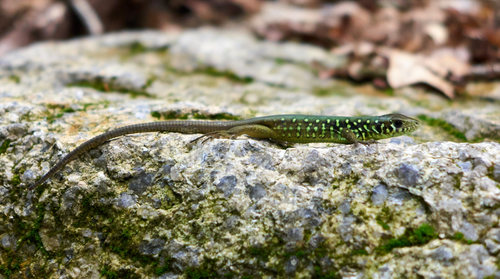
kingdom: Animalia
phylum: Chordata
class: Squamata
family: Lacertidae
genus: Lacerta
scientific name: Lacerta schreiberi
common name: Iberian emerald lizard
